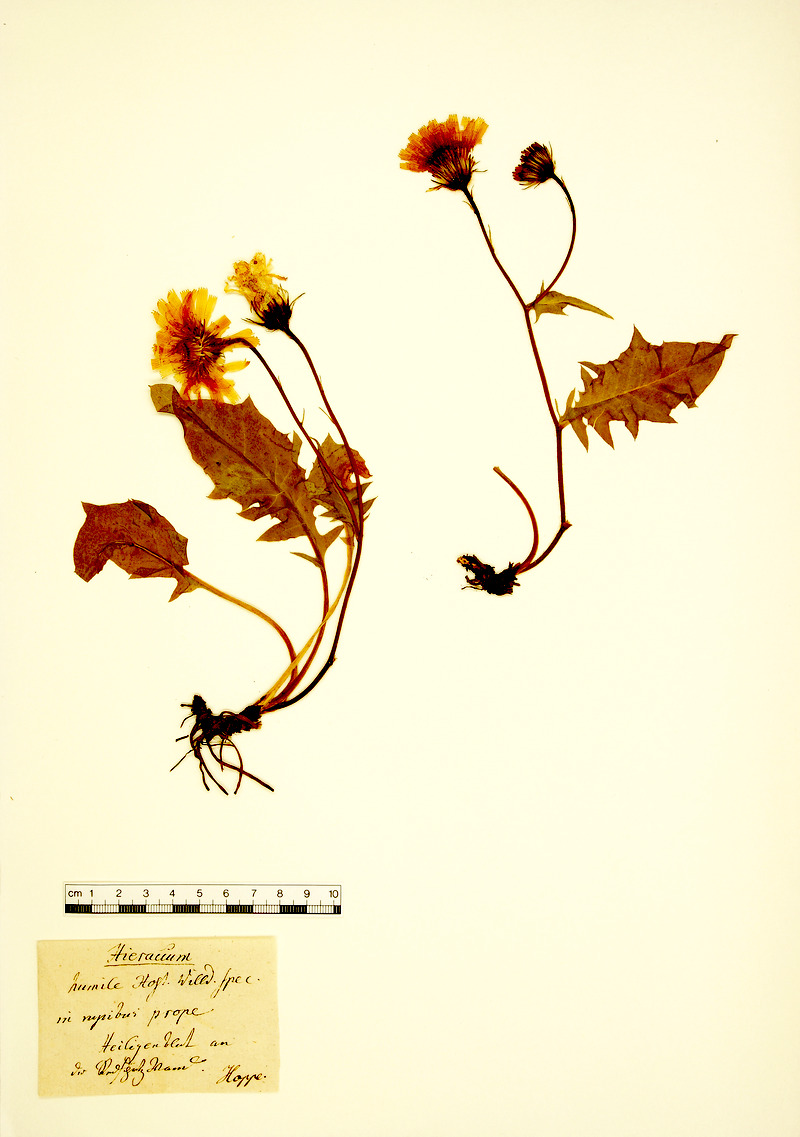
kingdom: Plantae
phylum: Tracheophyta
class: Magnoliopsida
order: Asterales
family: Asteraceae
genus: Hieracium
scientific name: Hieracium humile
